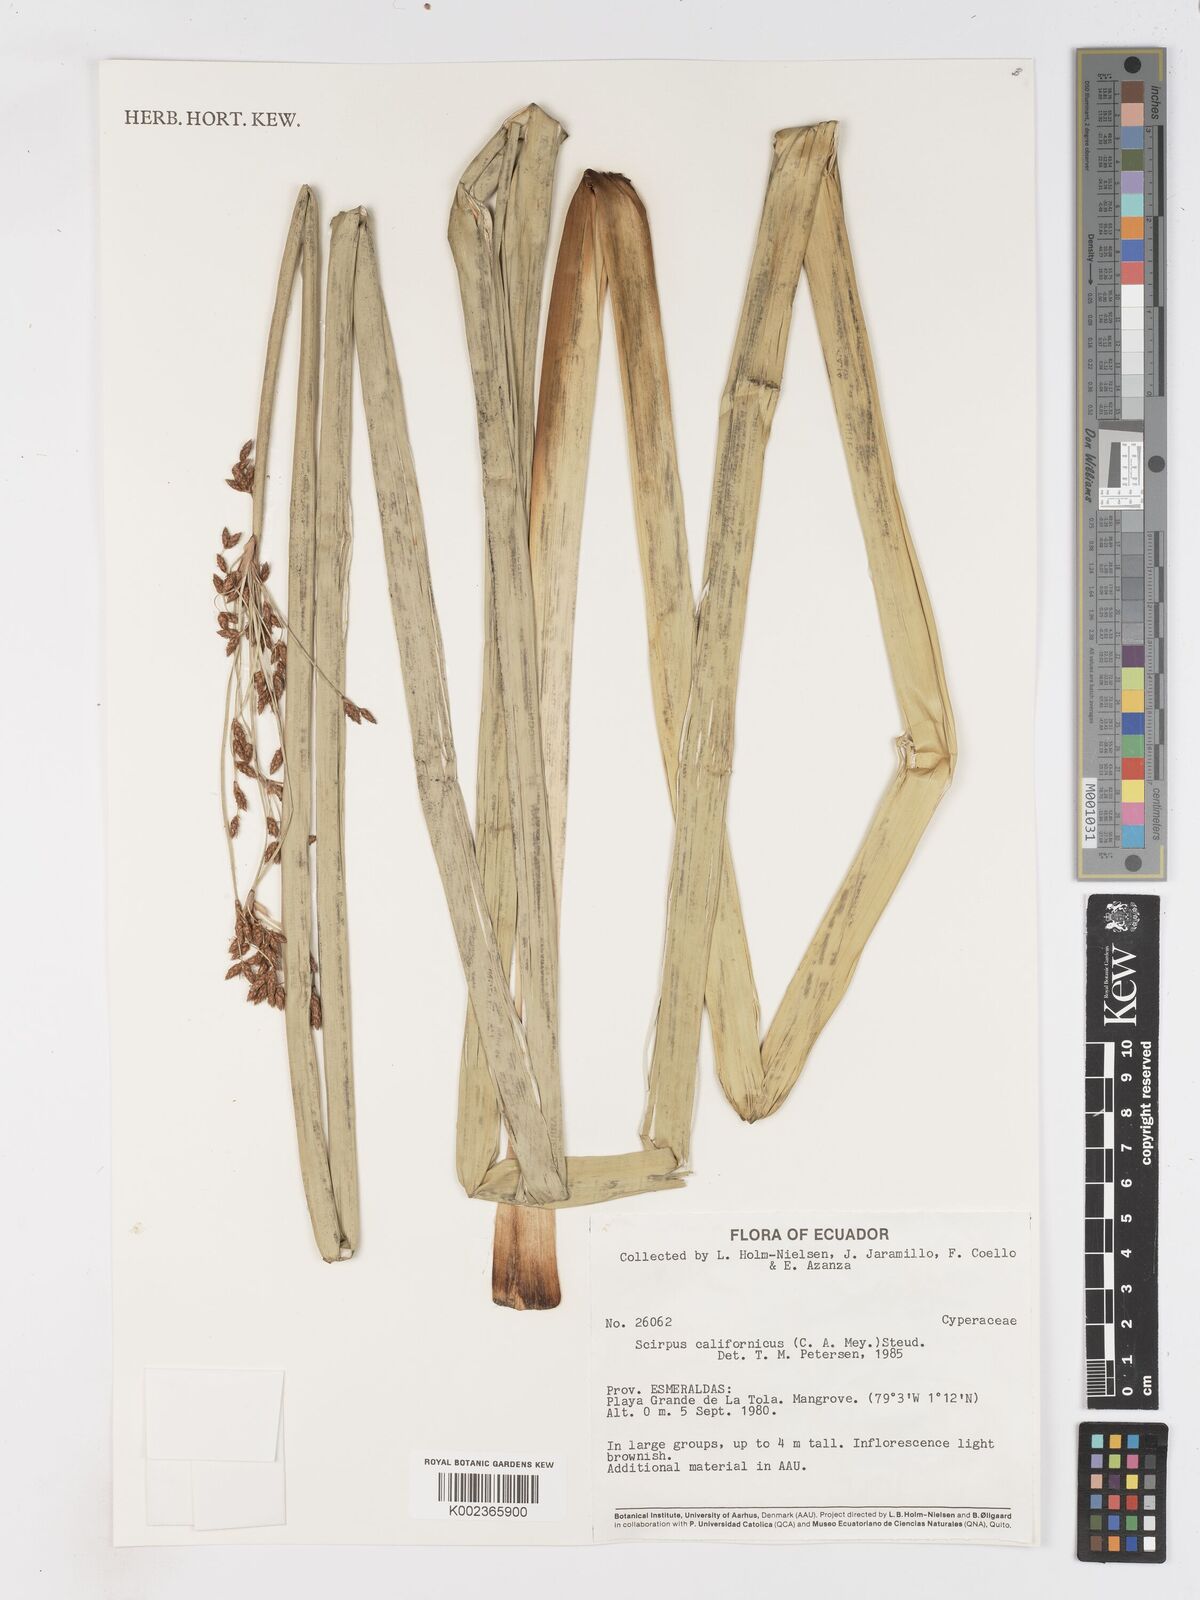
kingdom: Plantae
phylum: Tracheophyta
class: Liliopsida
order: Poales
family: Cyperaceae
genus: Schoenoplectus
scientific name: Schoenoplectus californicus
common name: California bulrush
